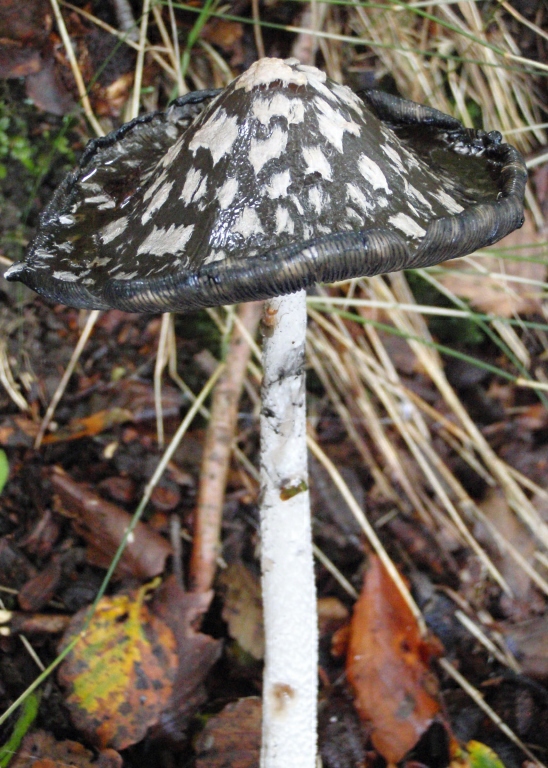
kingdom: Fungi
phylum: Basidiomycota
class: Agaricomycetes
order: Agaricales
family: Psathyrellaceae
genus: Coprinopsis
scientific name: Coprinopsis picacea
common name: skade-blækhat
